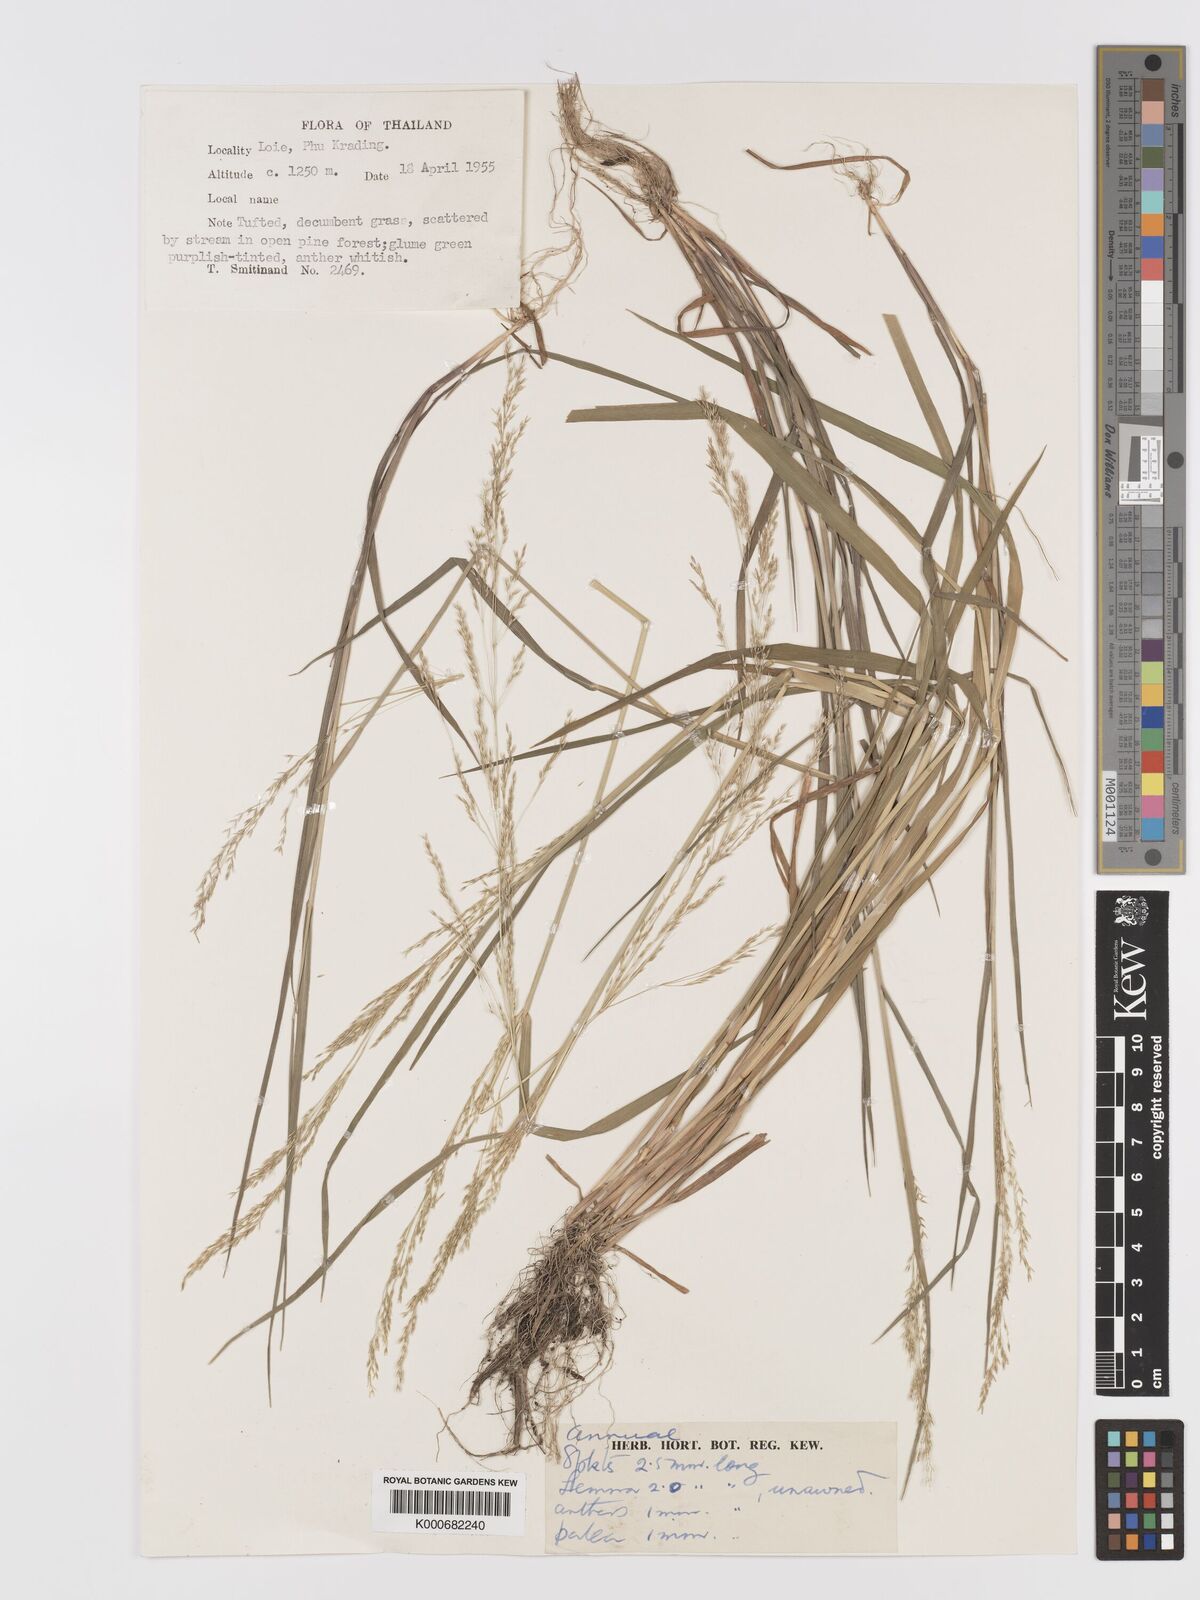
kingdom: Plantae
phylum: Tracheophyta
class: Liliopsida
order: Poales
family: Poaceae
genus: Agrostis
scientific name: Agrostis
